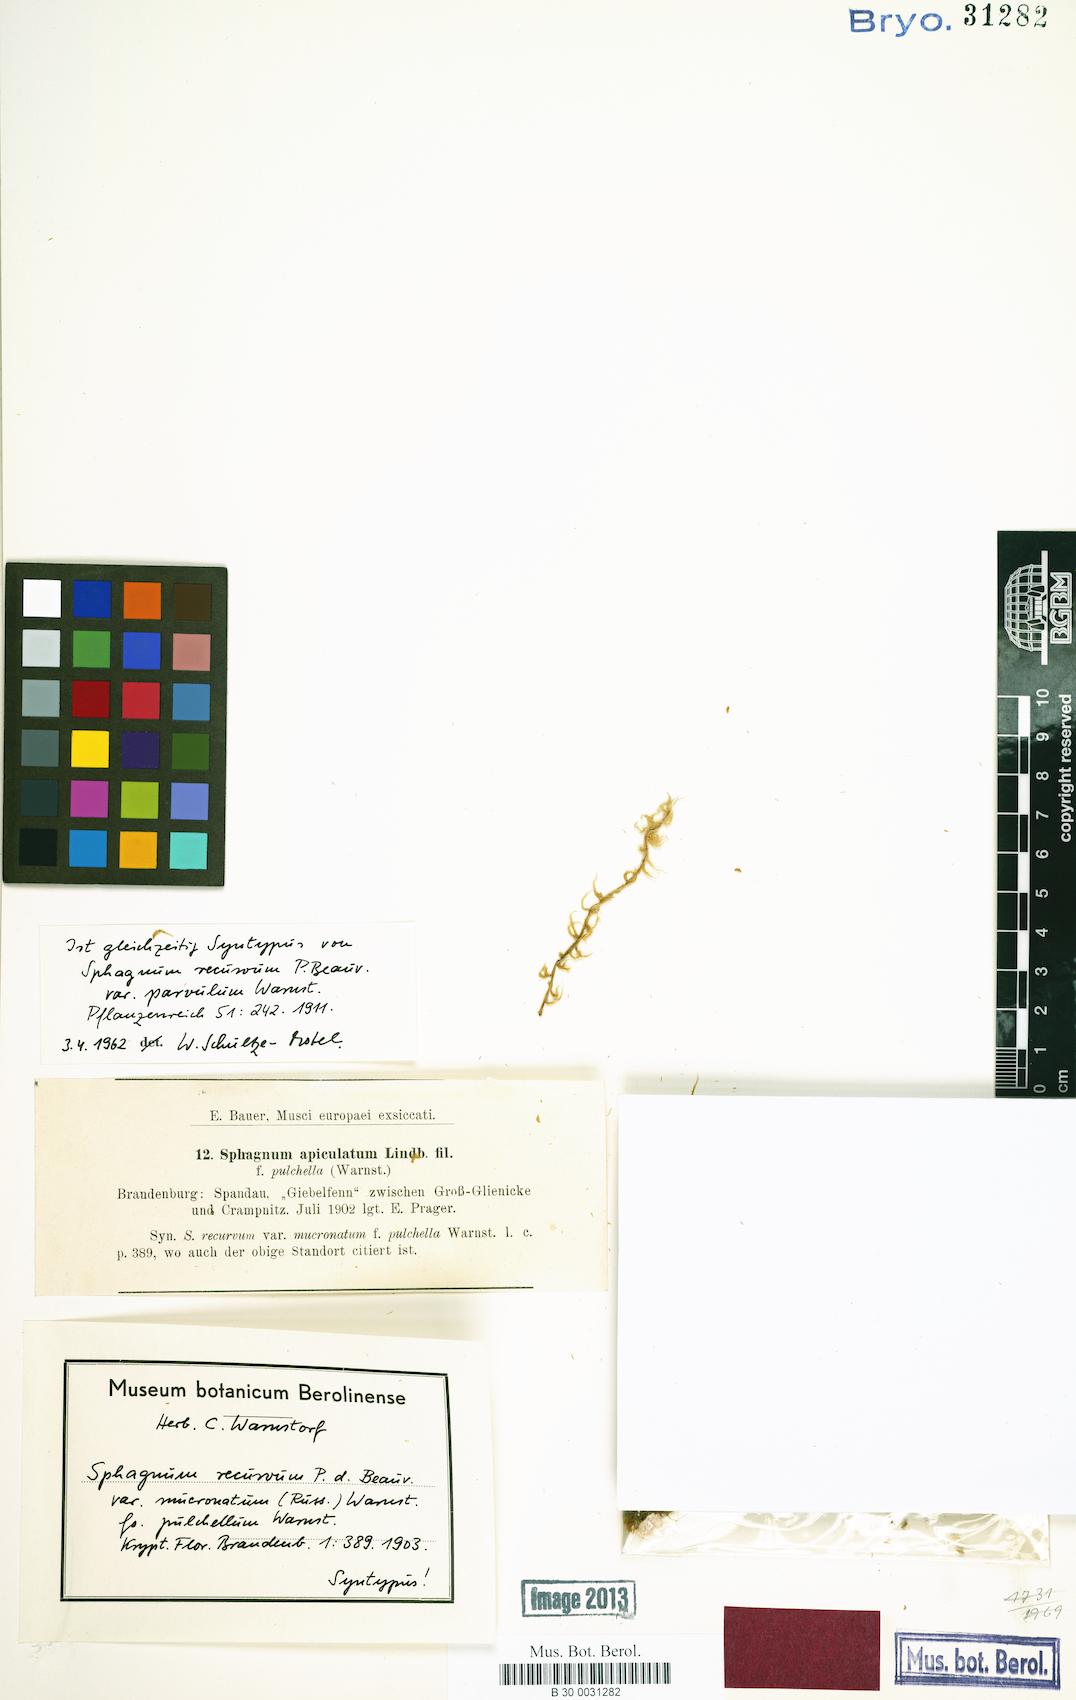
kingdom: Plantae
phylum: Bryophyta
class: Sphagnopsida
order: Sphagnales
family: Sphagnaceae
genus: Sphagnum
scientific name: Sphagnum recurvum
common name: Recurved peatmoss
